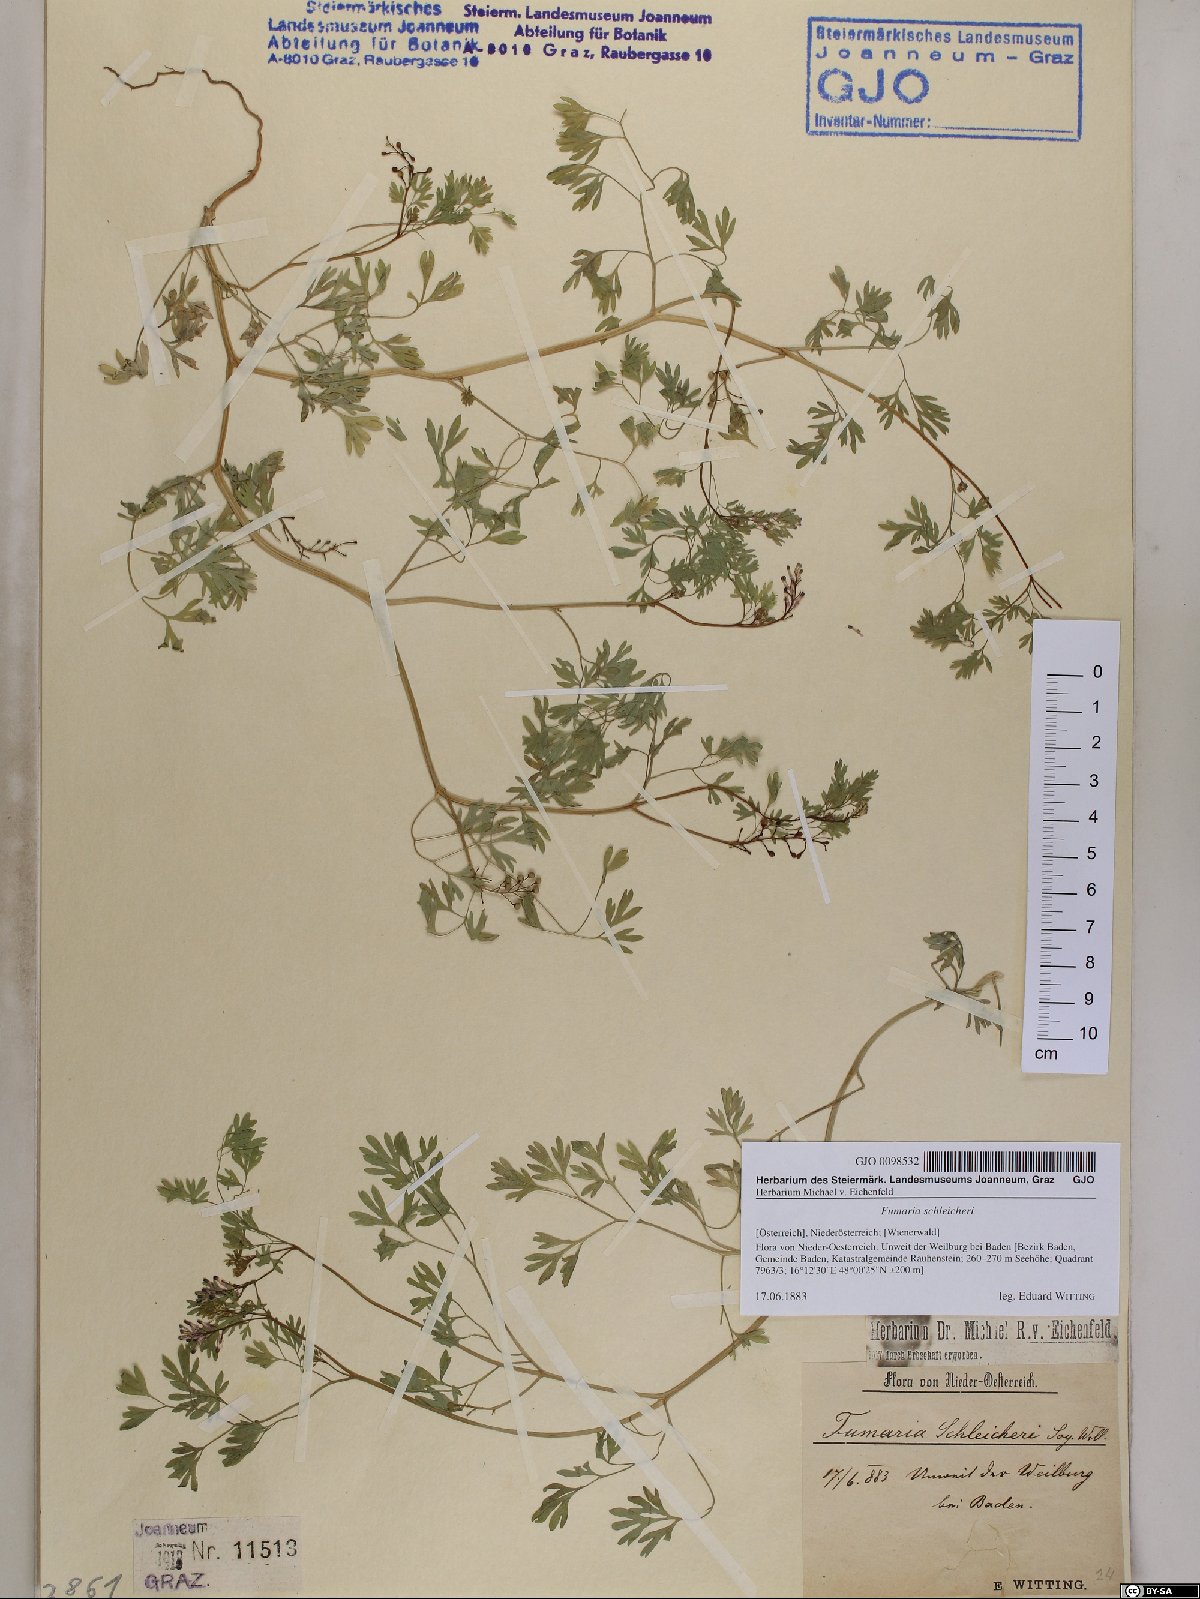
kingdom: Plantae
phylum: Tracheophyta
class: Magnoliopsida
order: Ranunculales
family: Papaveraceae
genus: Fumaria
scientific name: Fumaria schleicheri
